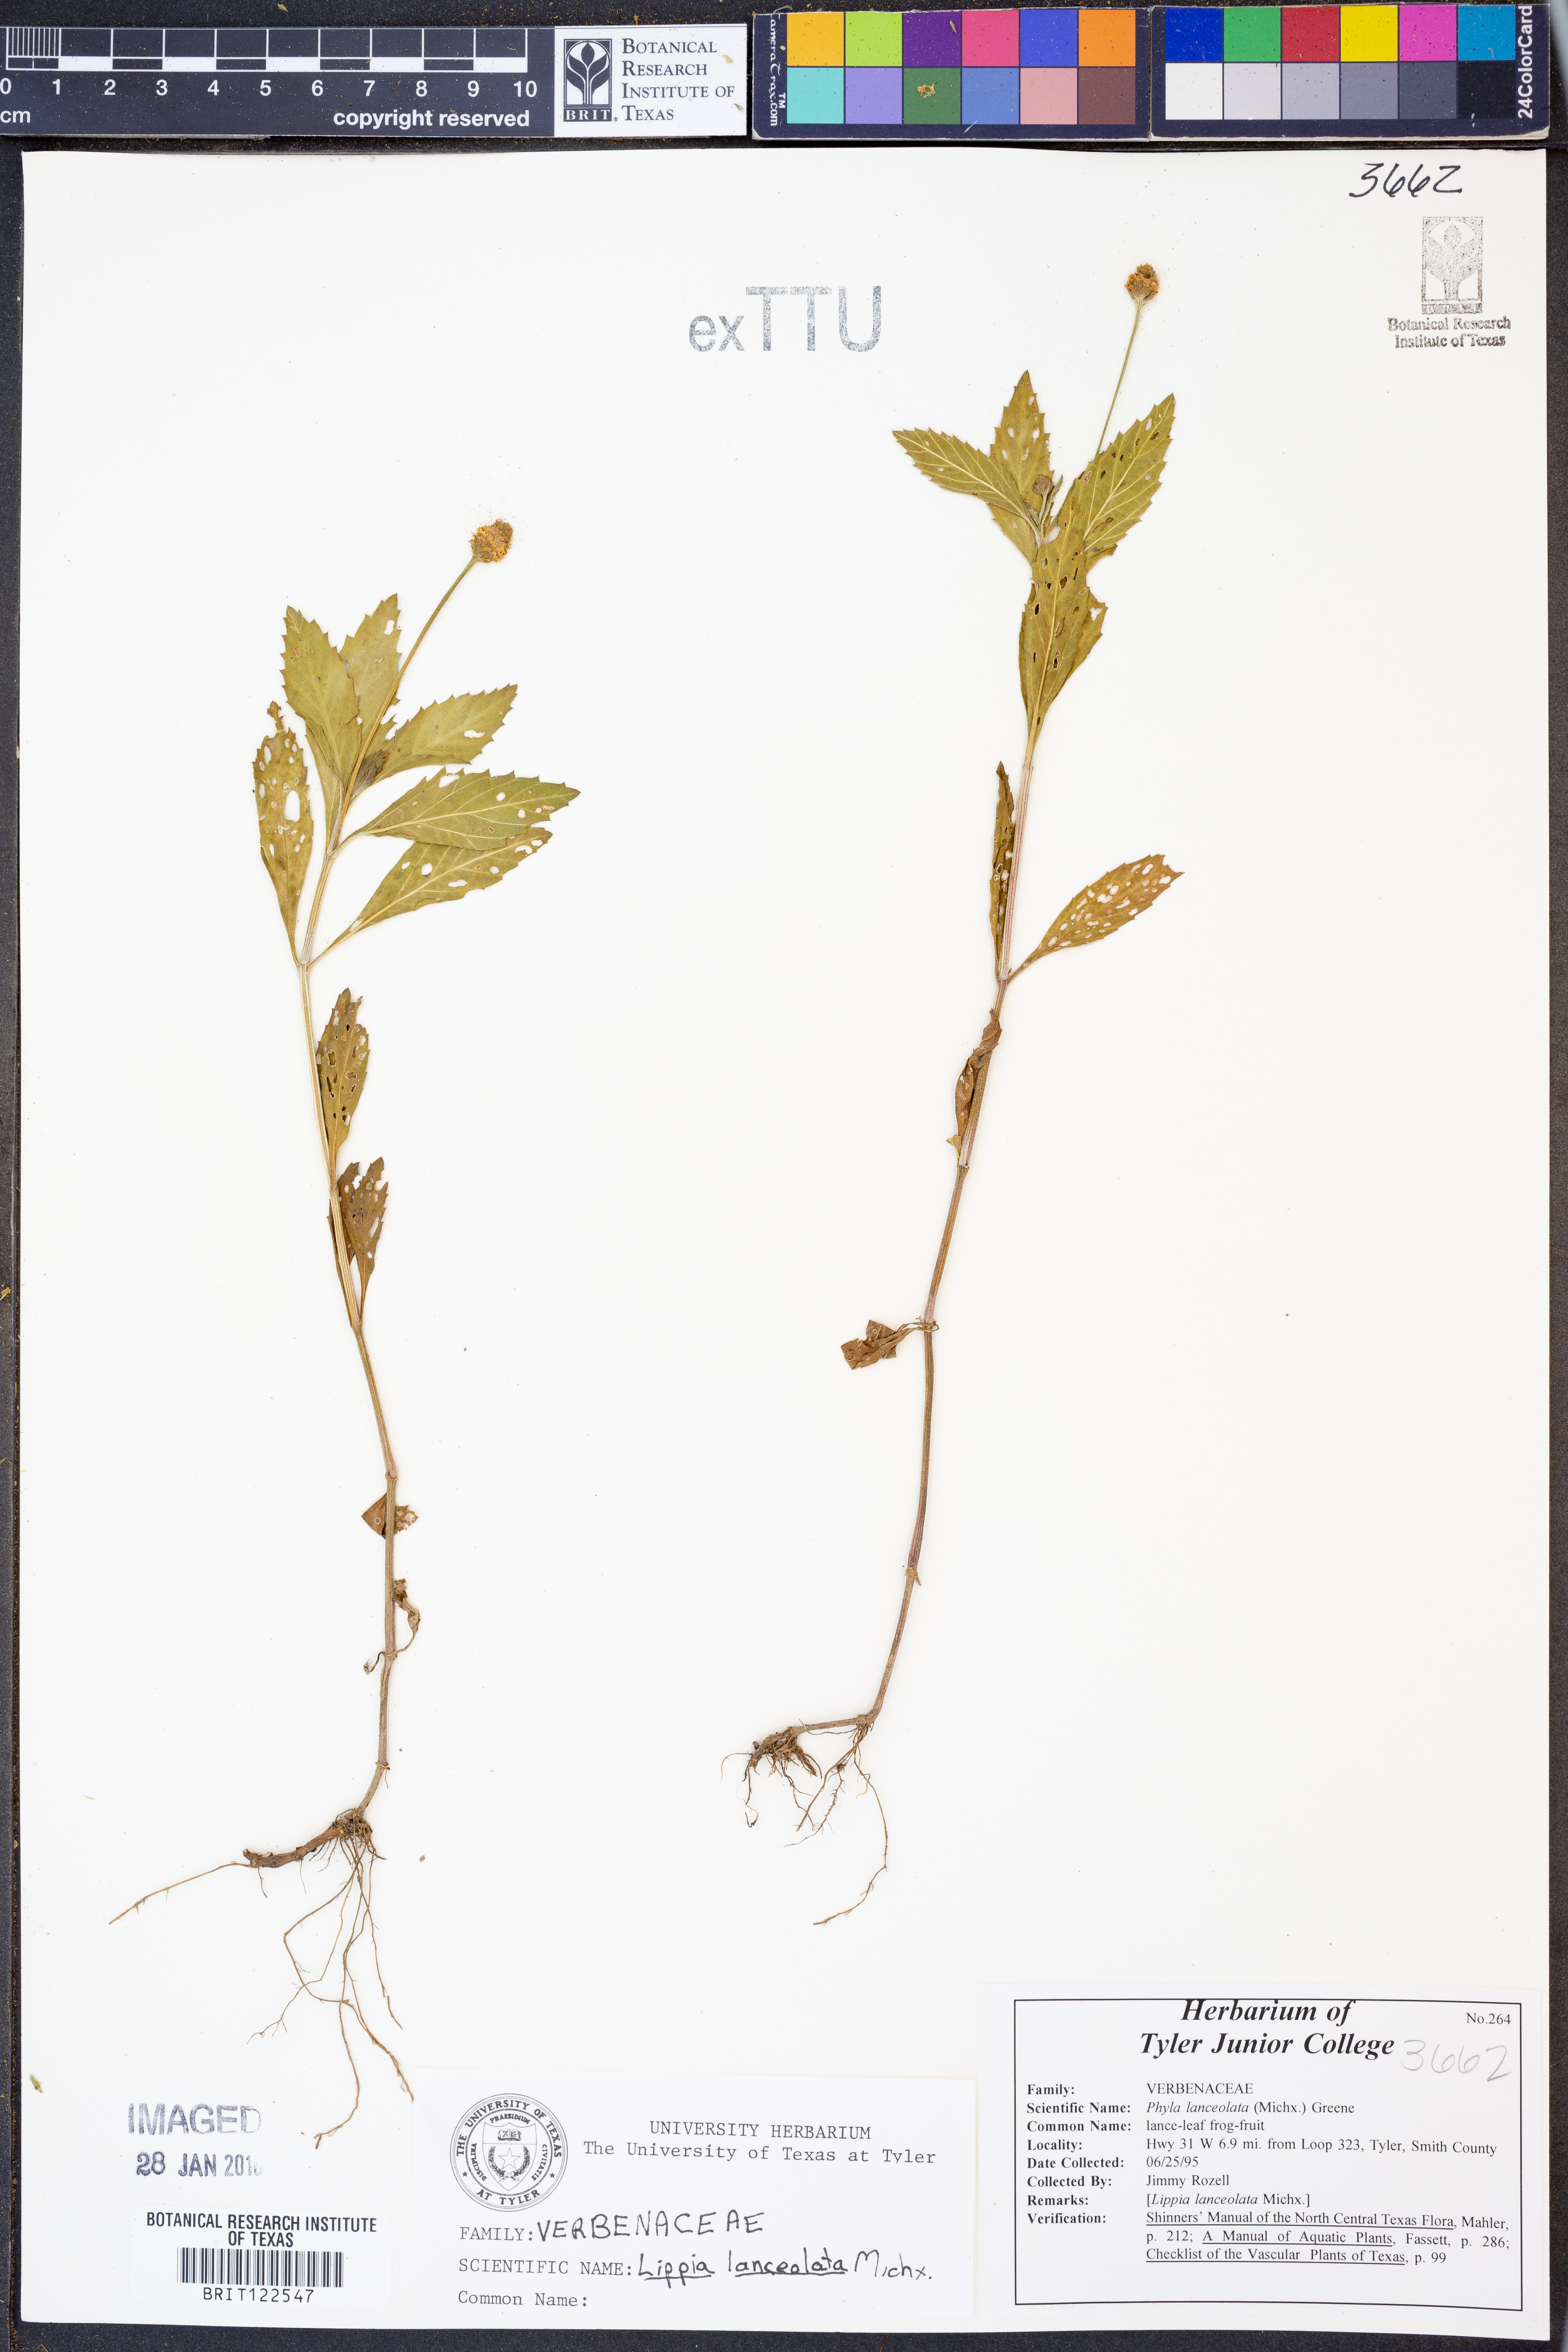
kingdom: Plantae
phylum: Tracheophyta
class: Magnoliopsida
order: Lamiales
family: Verbenaceae
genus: Phyla
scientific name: Phyla lanceolata
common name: Northern fogfruit
